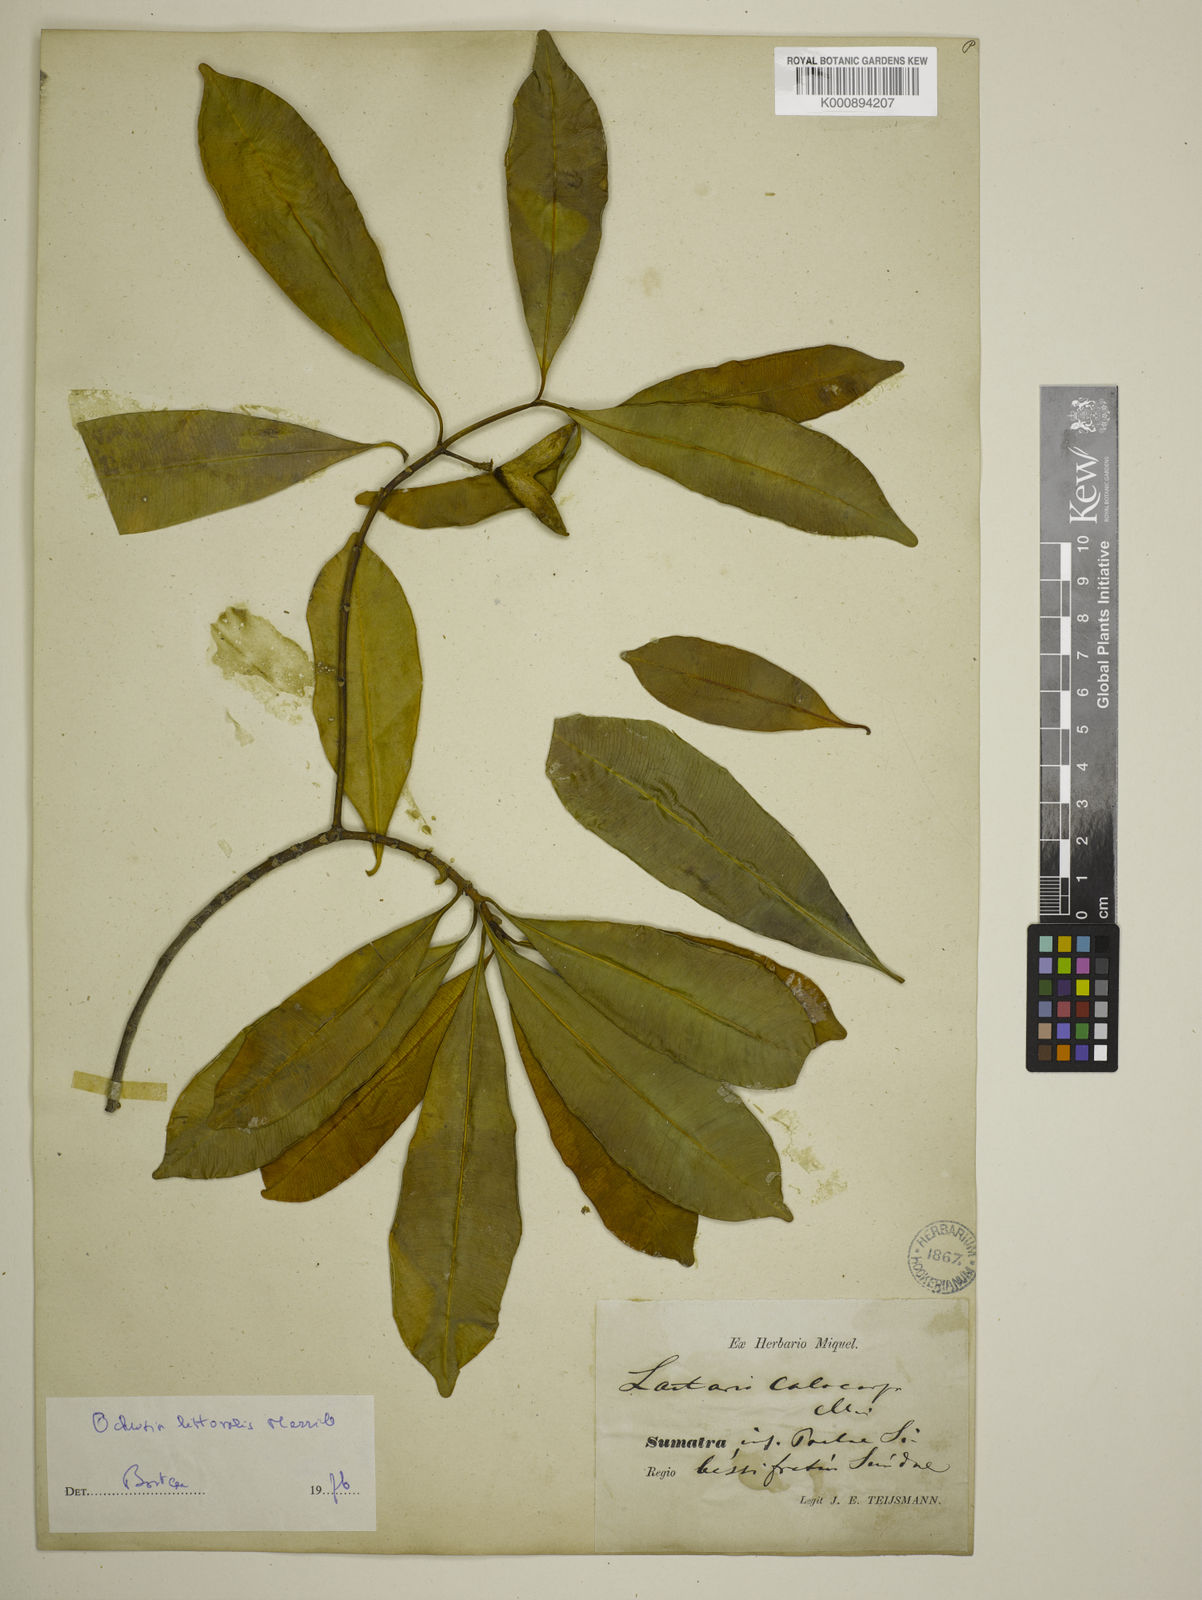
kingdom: Plantae
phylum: Tracheophyta
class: Magnoliopsida
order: Gentianales
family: Apocynaceae
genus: Ochrosia
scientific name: Ochrosia elliptica
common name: Elliptic yellowwood
